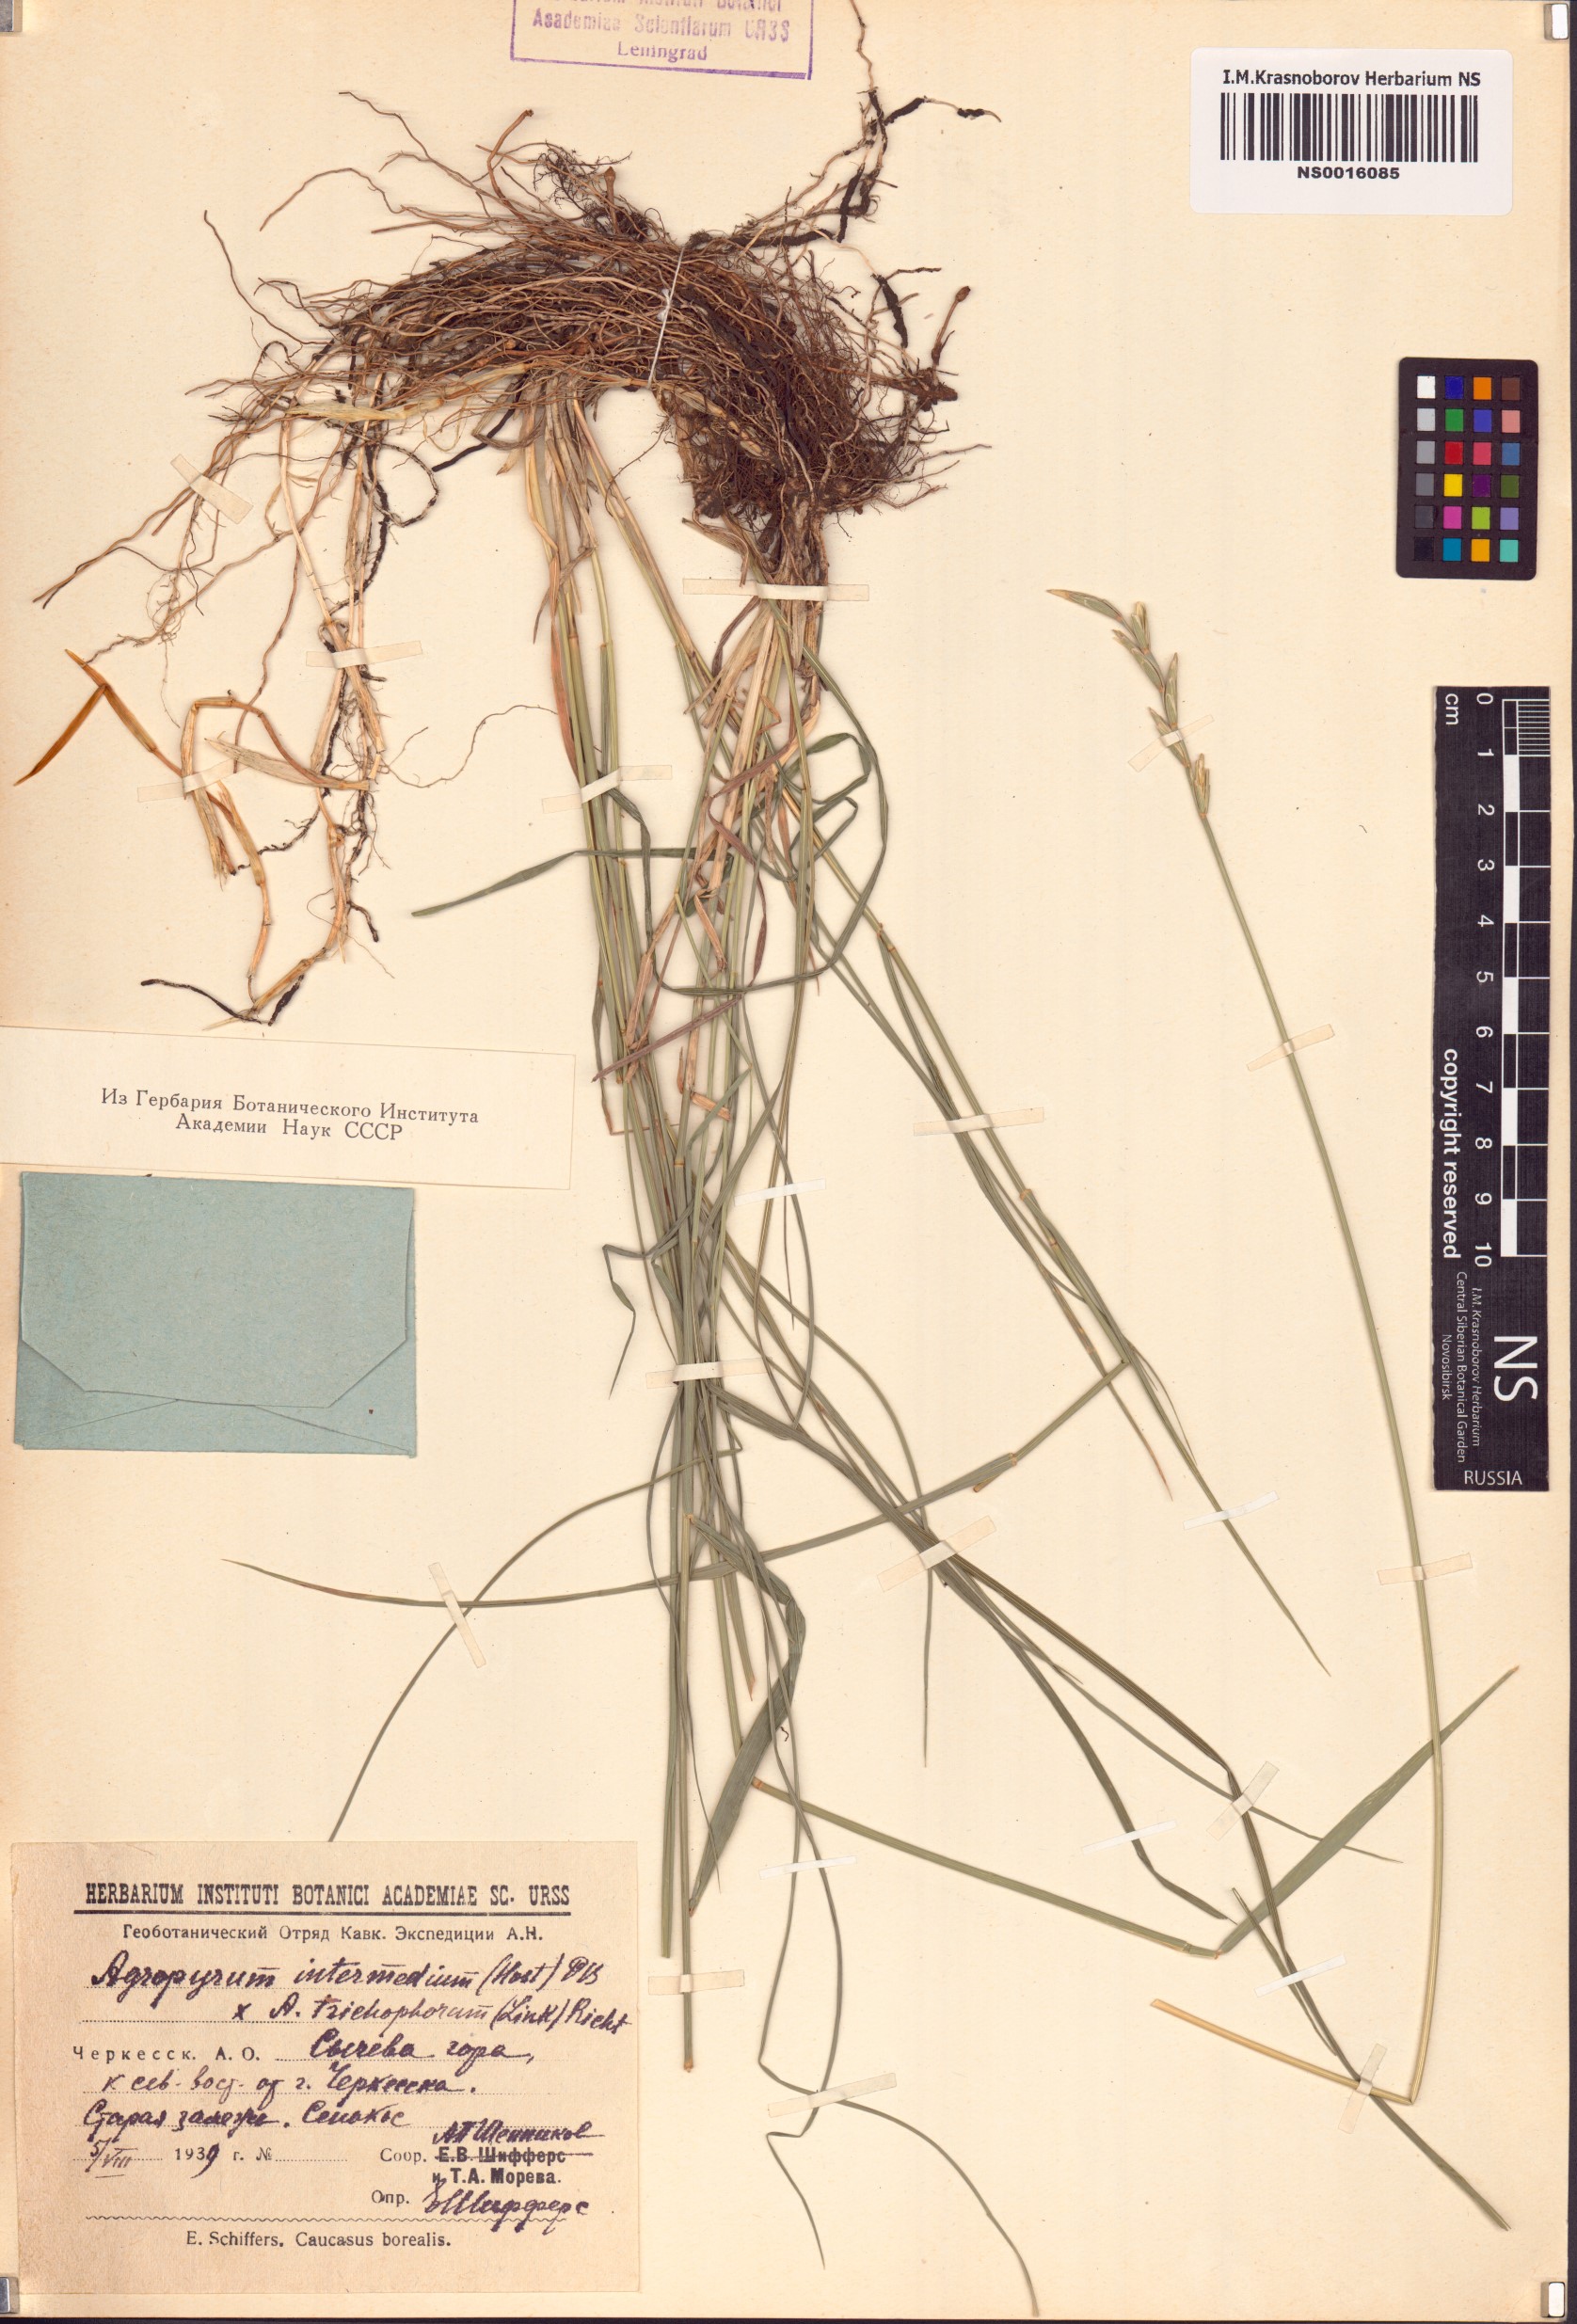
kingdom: Plantae
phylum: Tracheophyta
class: Liliopsida
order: Poales
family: Poaceae
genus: Thinopyrum
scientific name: Thinopyrum intermedium
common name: Intermediate wheatgrass
